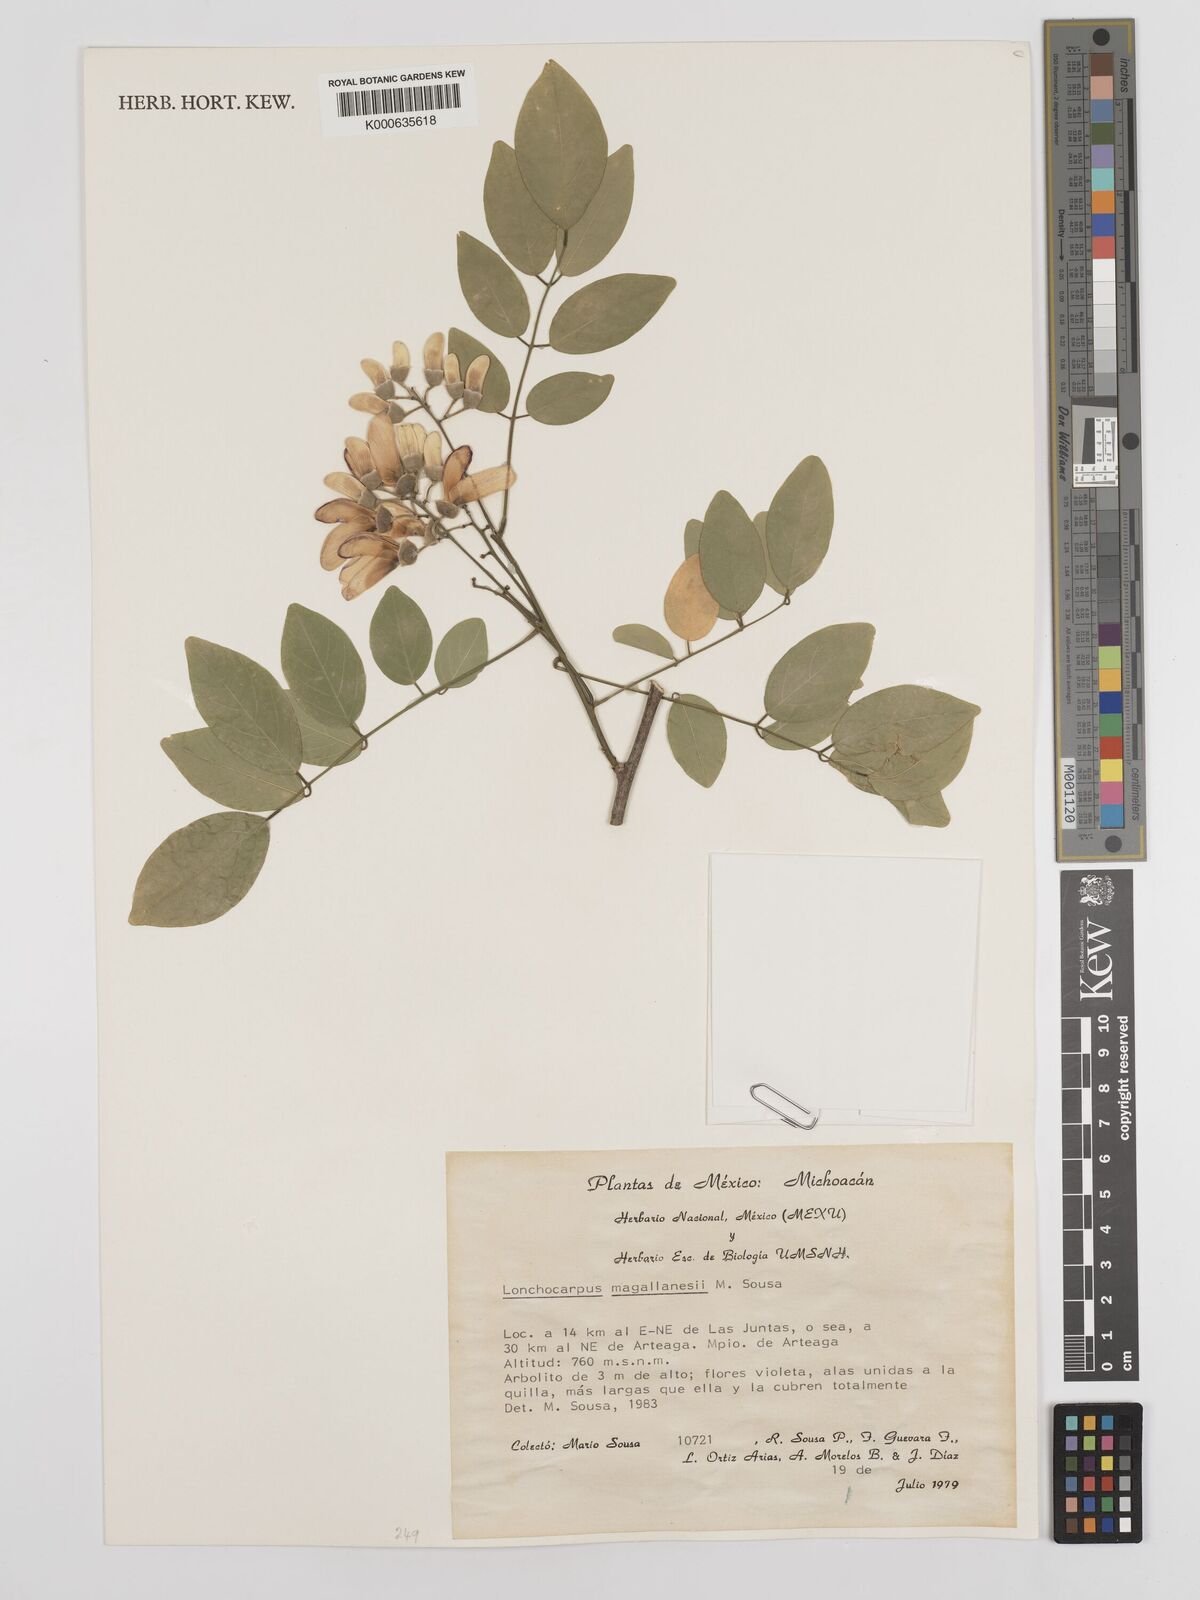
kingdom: Plantae
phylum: Tracheophyta
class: Magnoliopsida
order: Fabales
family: Fabaceae
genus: Lonchocarpus
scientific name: Lonchocarpus
